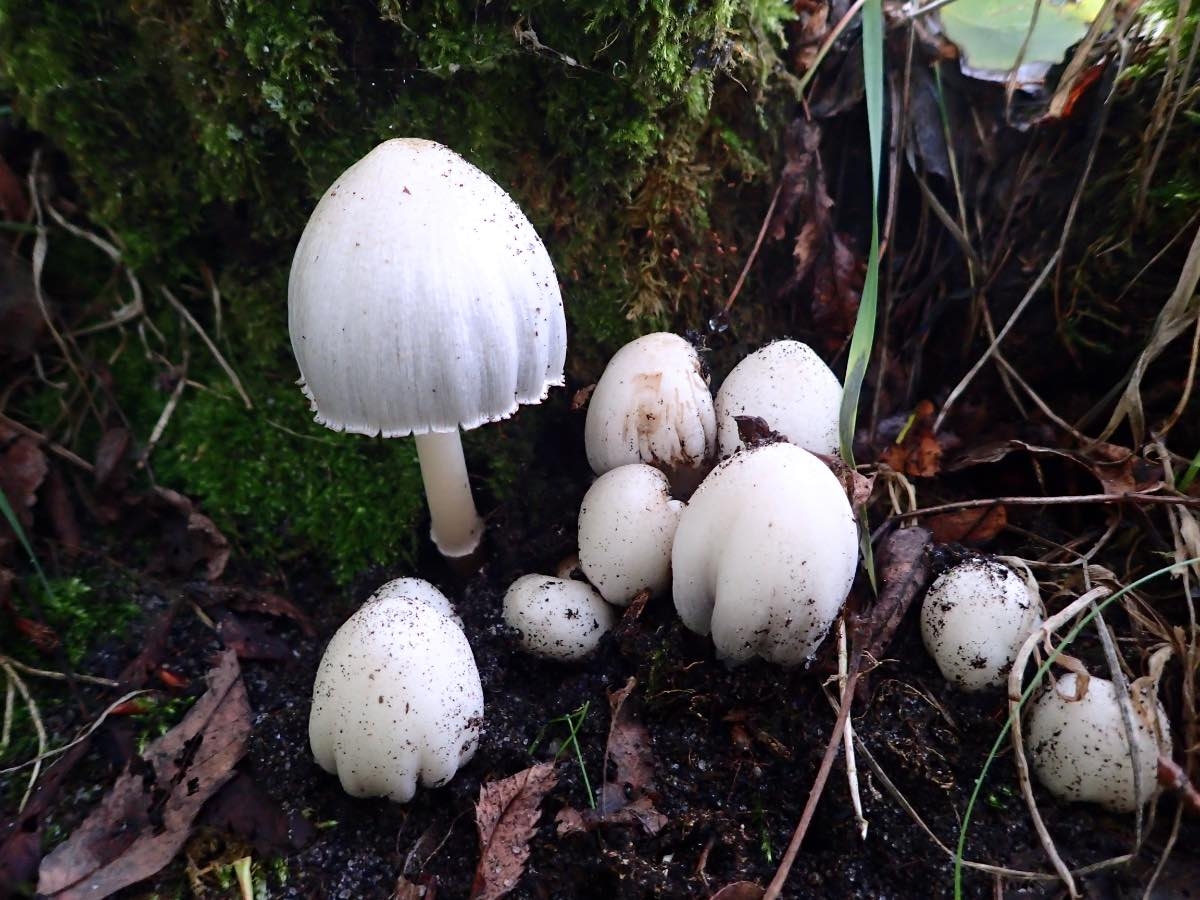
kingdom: Fungi
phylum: Basidiomycota
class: Agaricomycetes
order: Agaricales
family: Psathyrellaceae
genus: Coprinopsis
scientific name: Coprinopsis atramentaria
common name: almindelig blækhat
